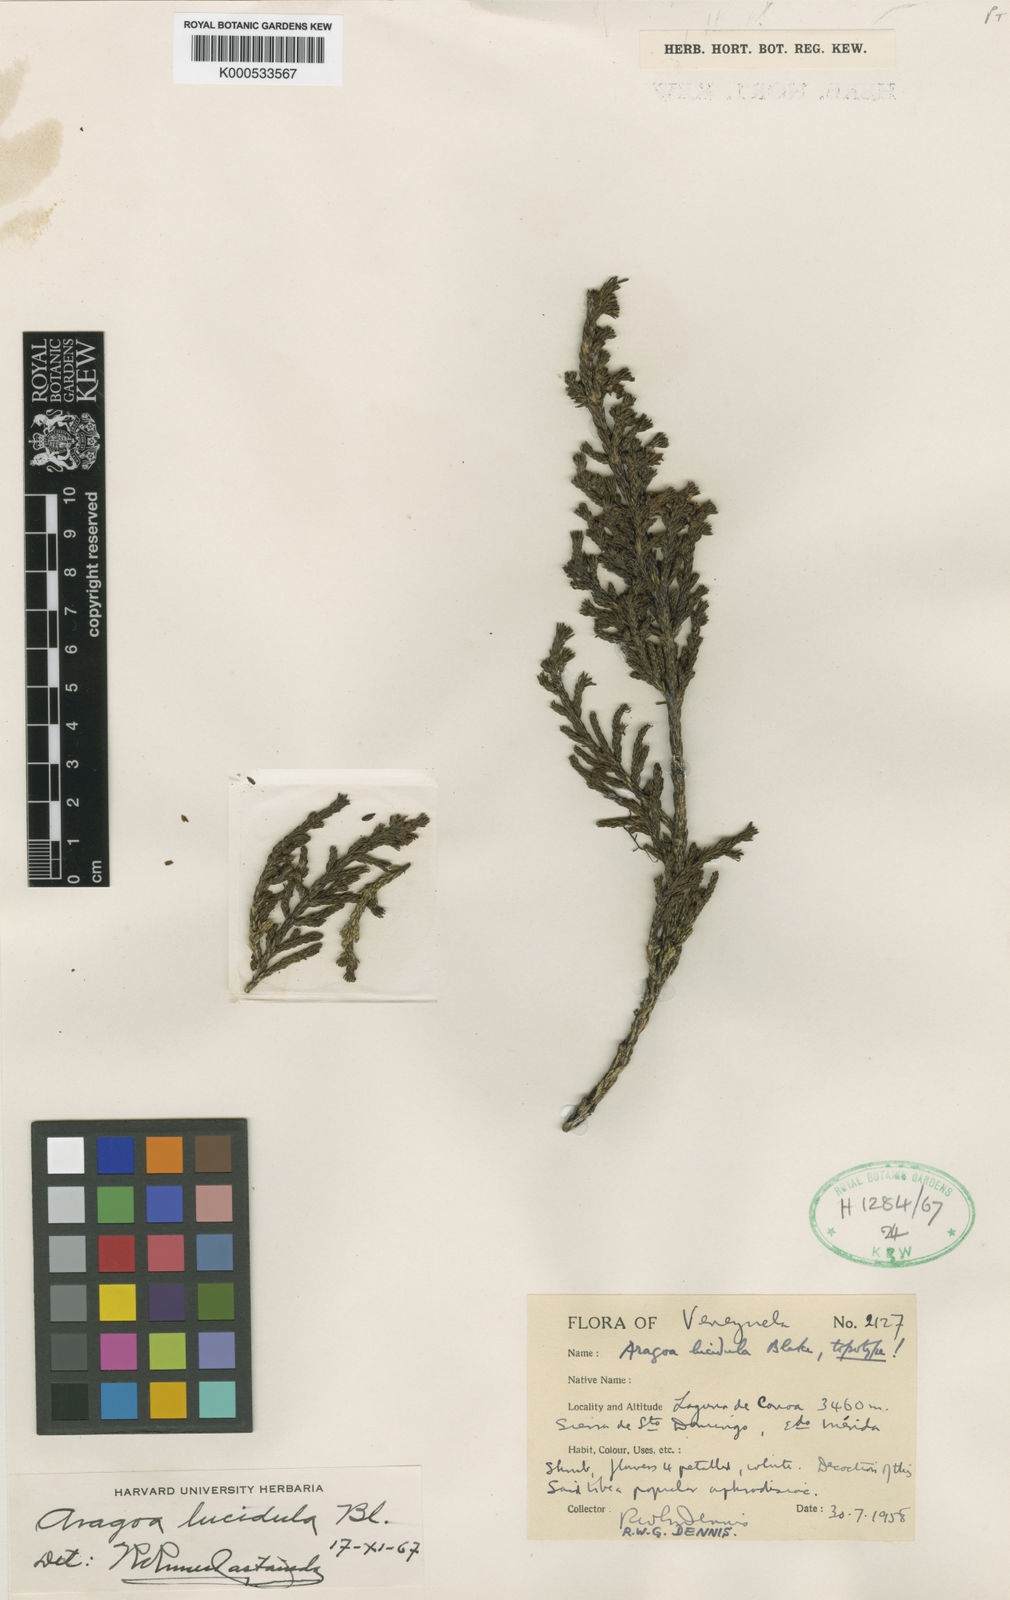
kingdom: Plantae
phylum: Tracheophyta
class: Magnoliopsida
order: Lamiales
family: Plantaginaceae
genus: Aragoa
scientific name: Aragoa lucidula
